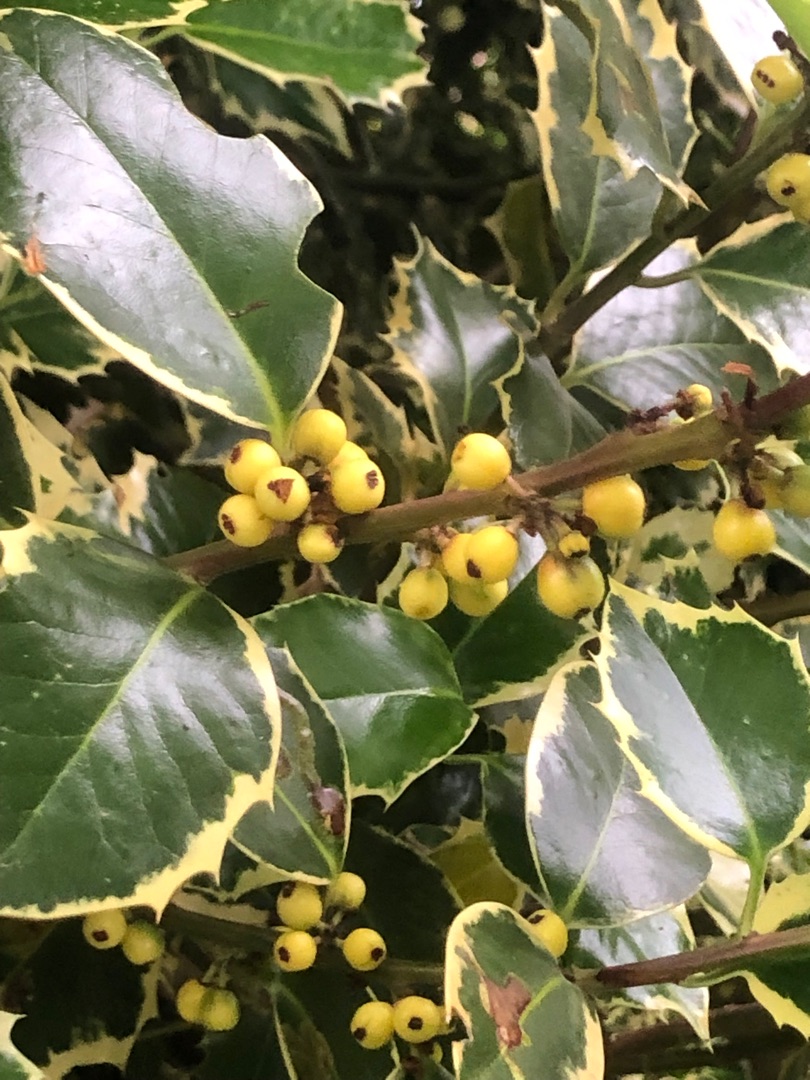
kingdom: Plantae
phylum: Tracheophyta
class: Magnoliopsida
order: Aquifoliales
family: Aquifoliaceae
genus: Ilex
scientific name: Ilex aquifolium
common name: Kristtorn
